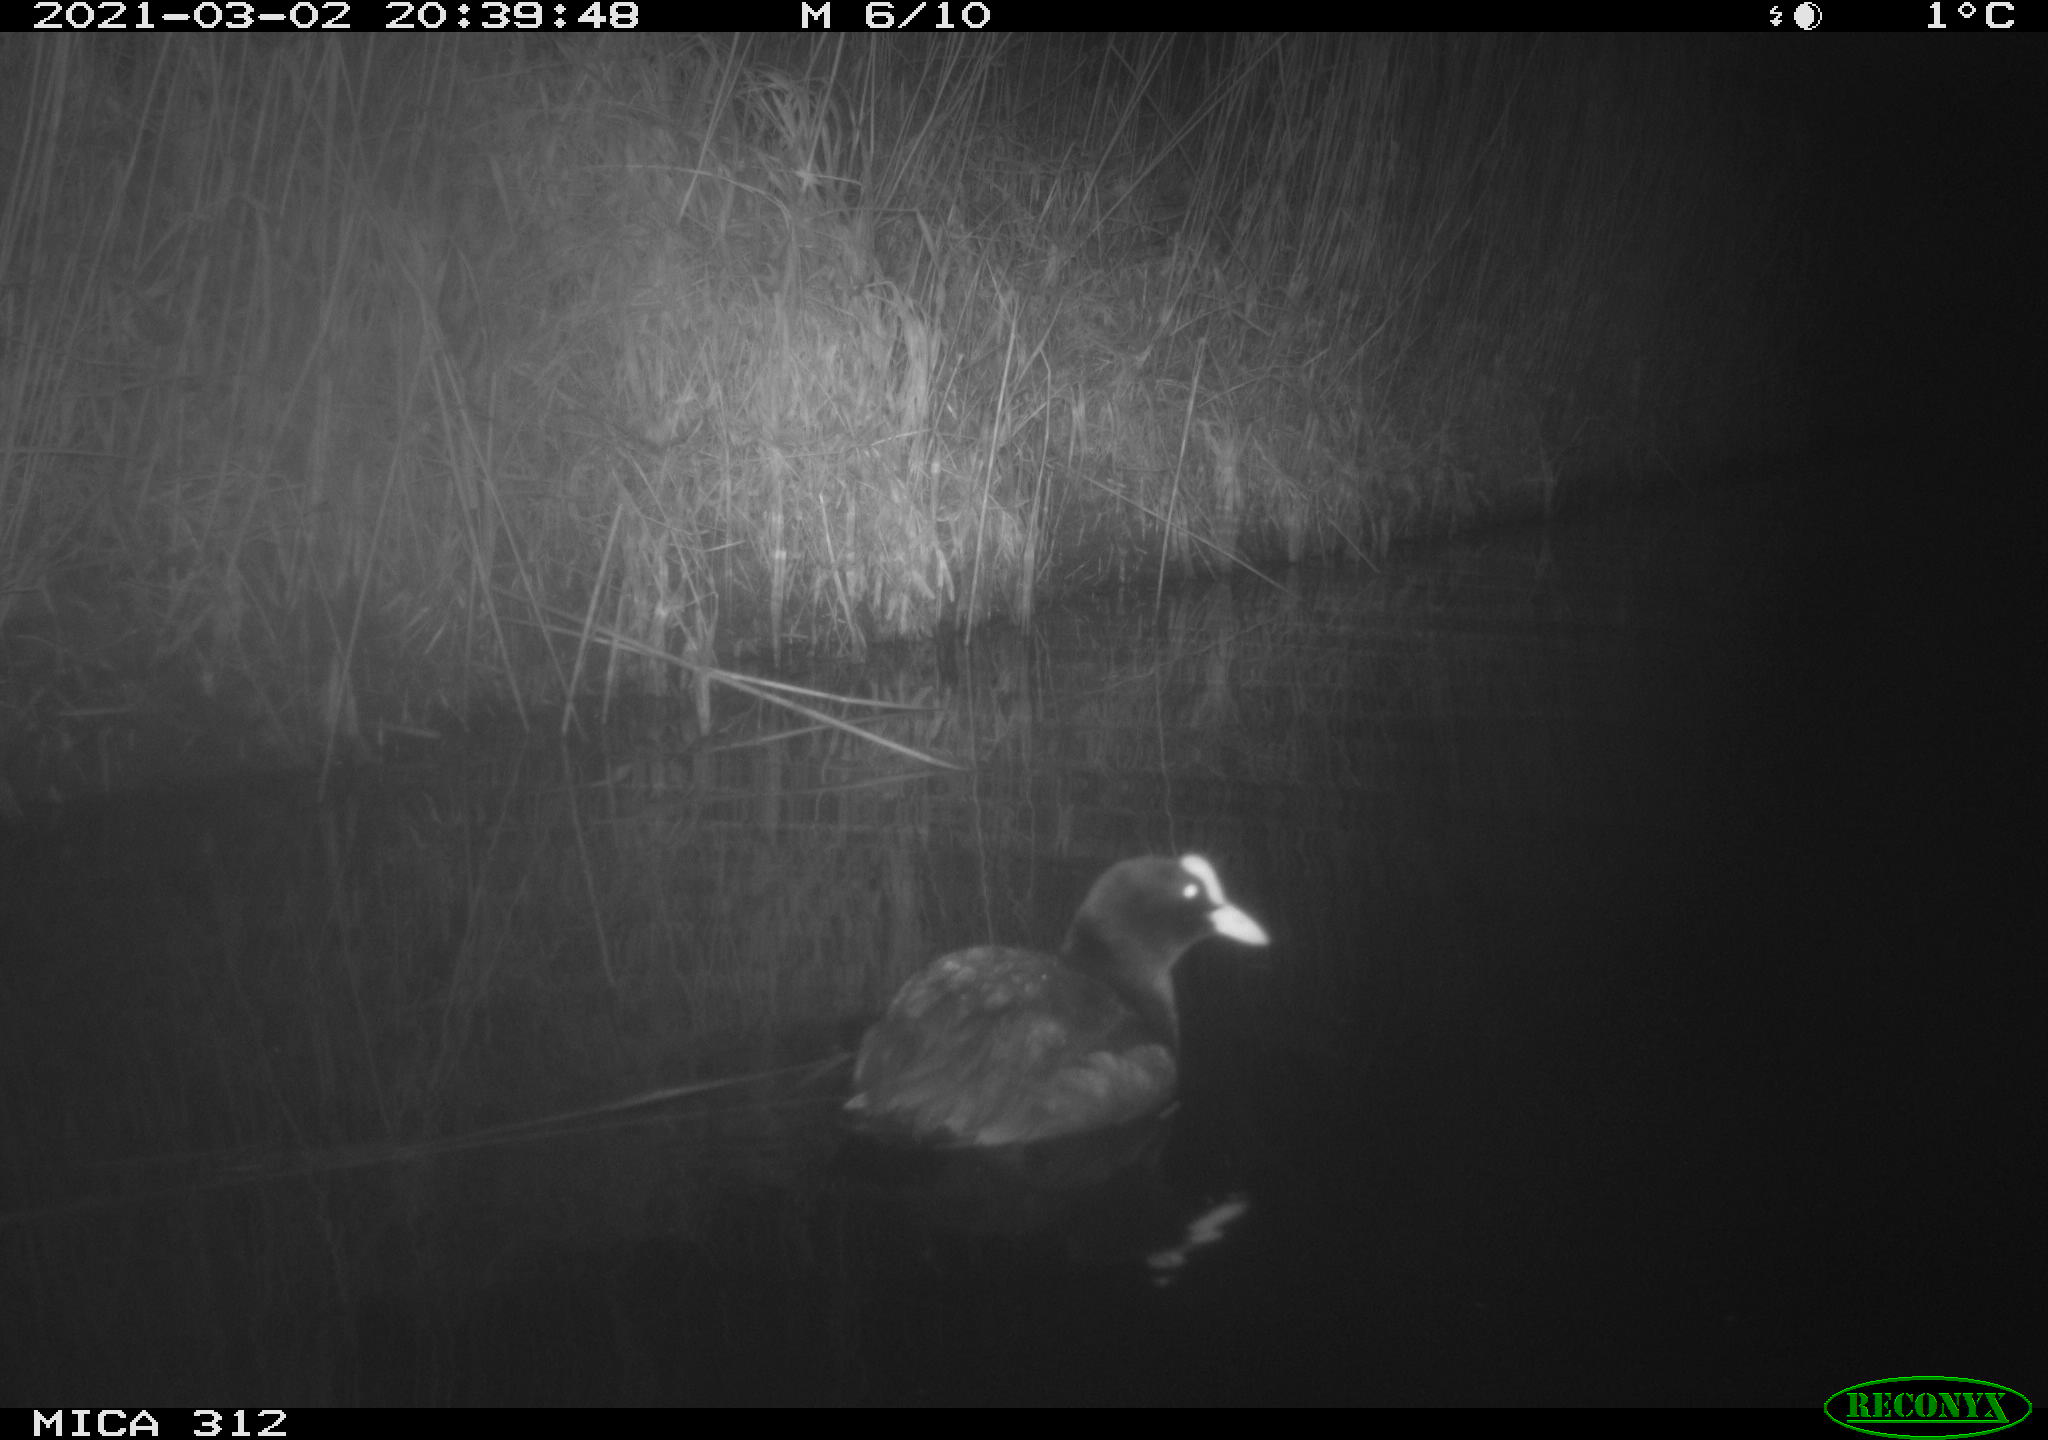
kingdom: Animalia
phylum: Chordata
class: Aves
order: Gruiformes
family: Rallidae
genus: Fulica
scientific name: Fulica atra
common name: Eurasian coot
